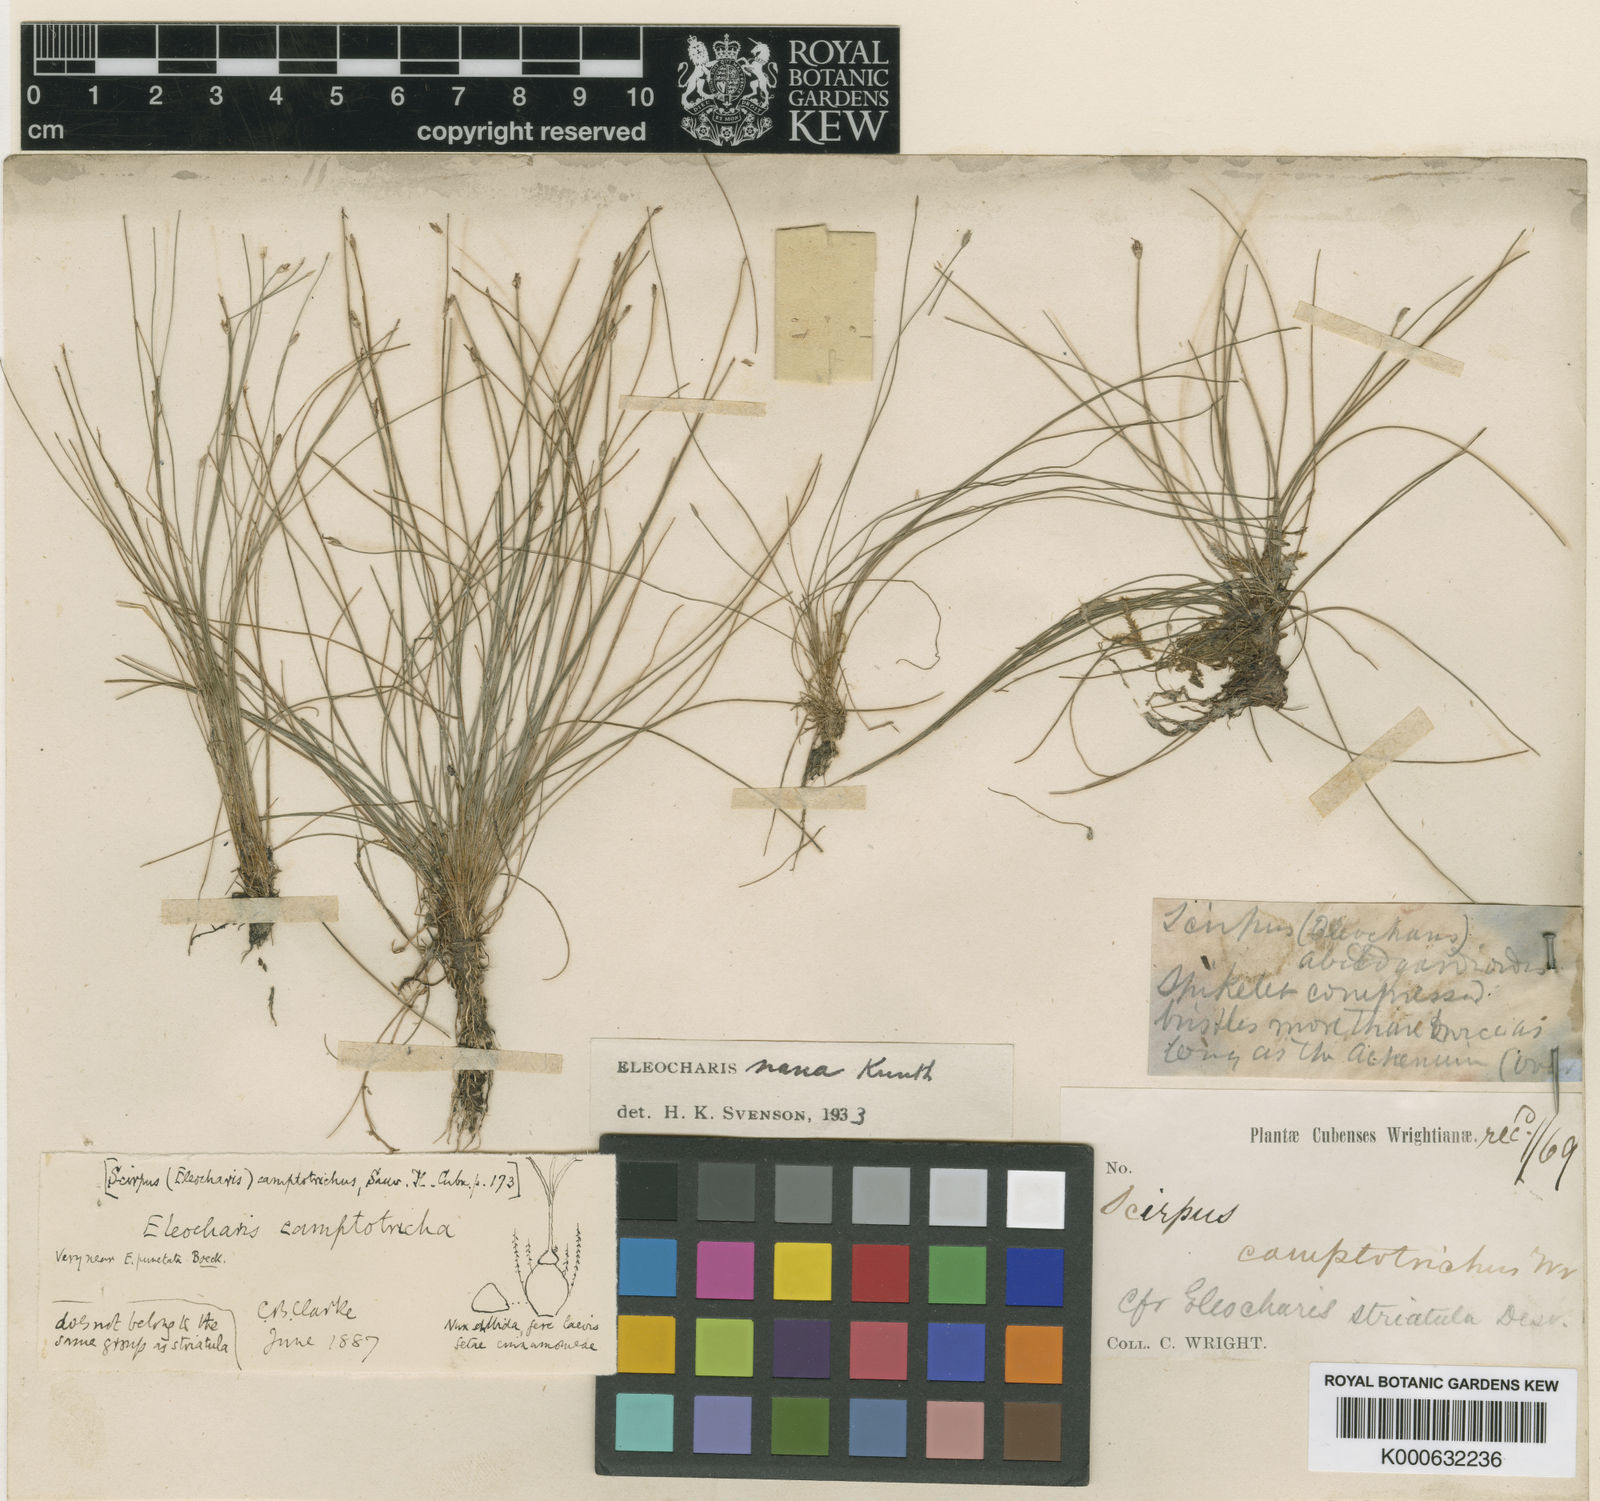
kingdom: Plantae
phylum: Tracheophyta
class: Liliopsida
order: Poales
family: Cyperaceae
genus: Eleocharis
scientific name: Eleocharis nana
